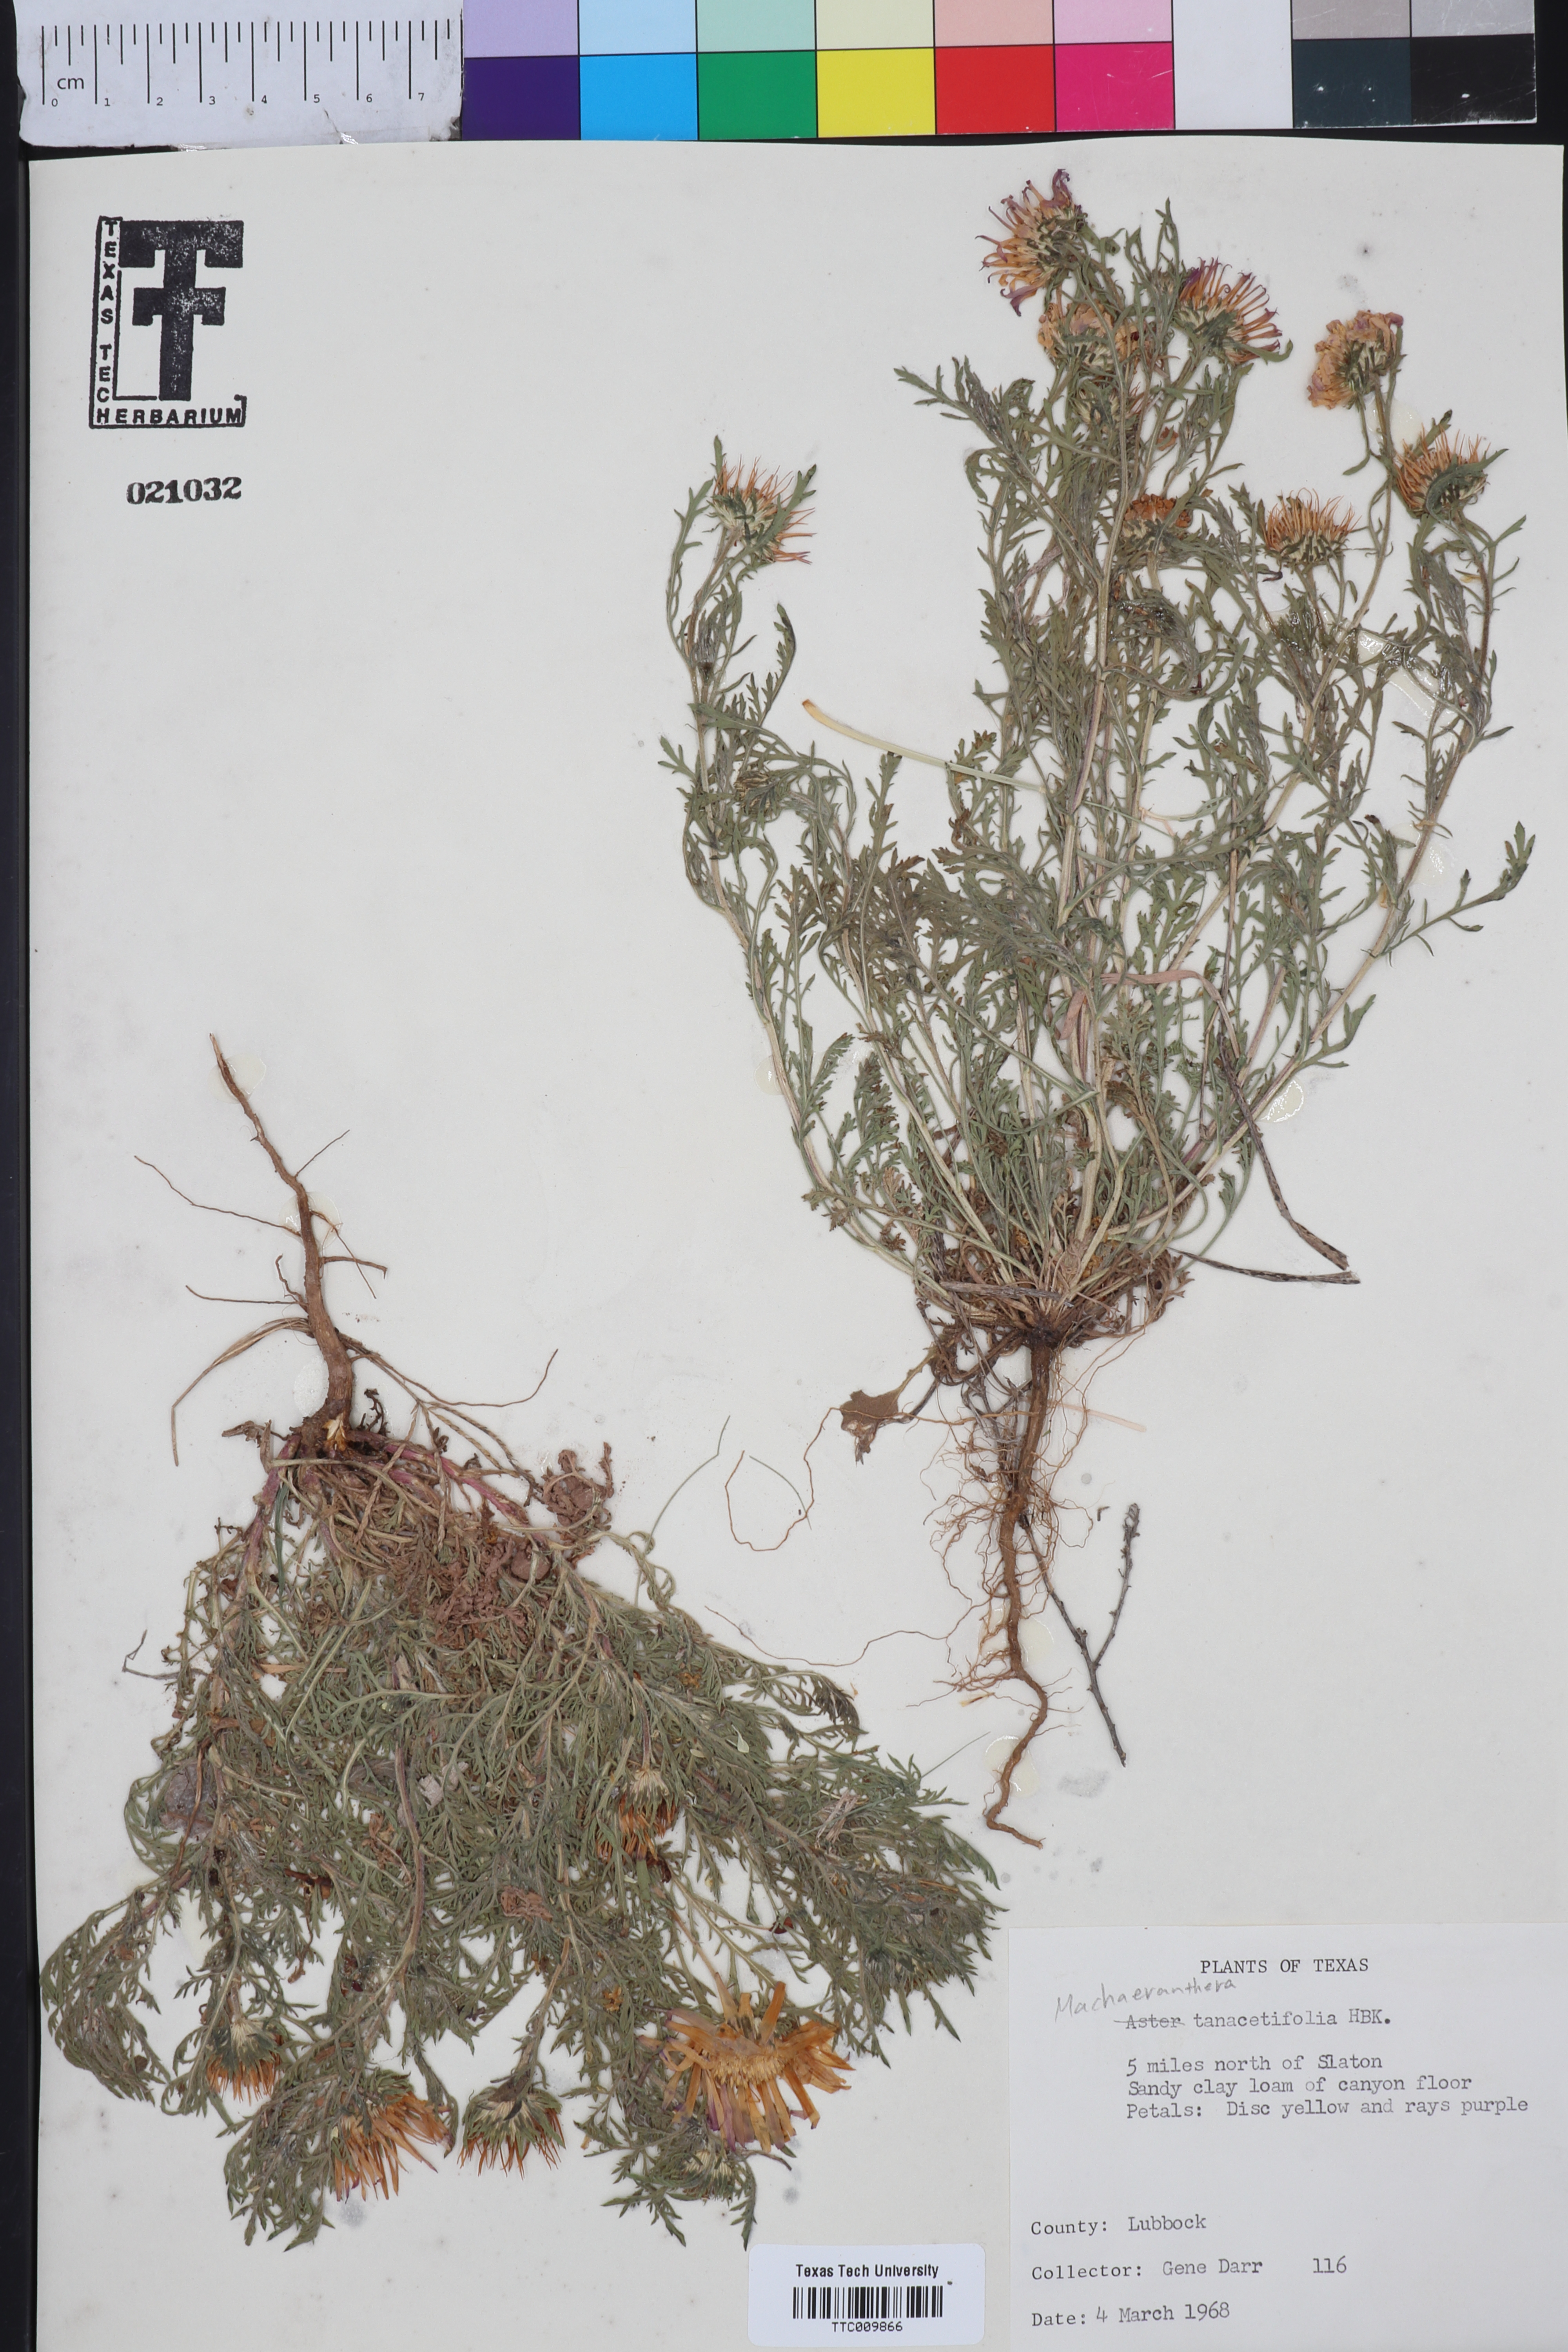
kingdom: Plantae
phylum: Tracheophyta
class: Magnoliopsida
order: Asterales
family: Asteraceae
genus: Machaeranthera
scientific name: Machaeranthera tanacetifolia
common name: Tansy-aster
